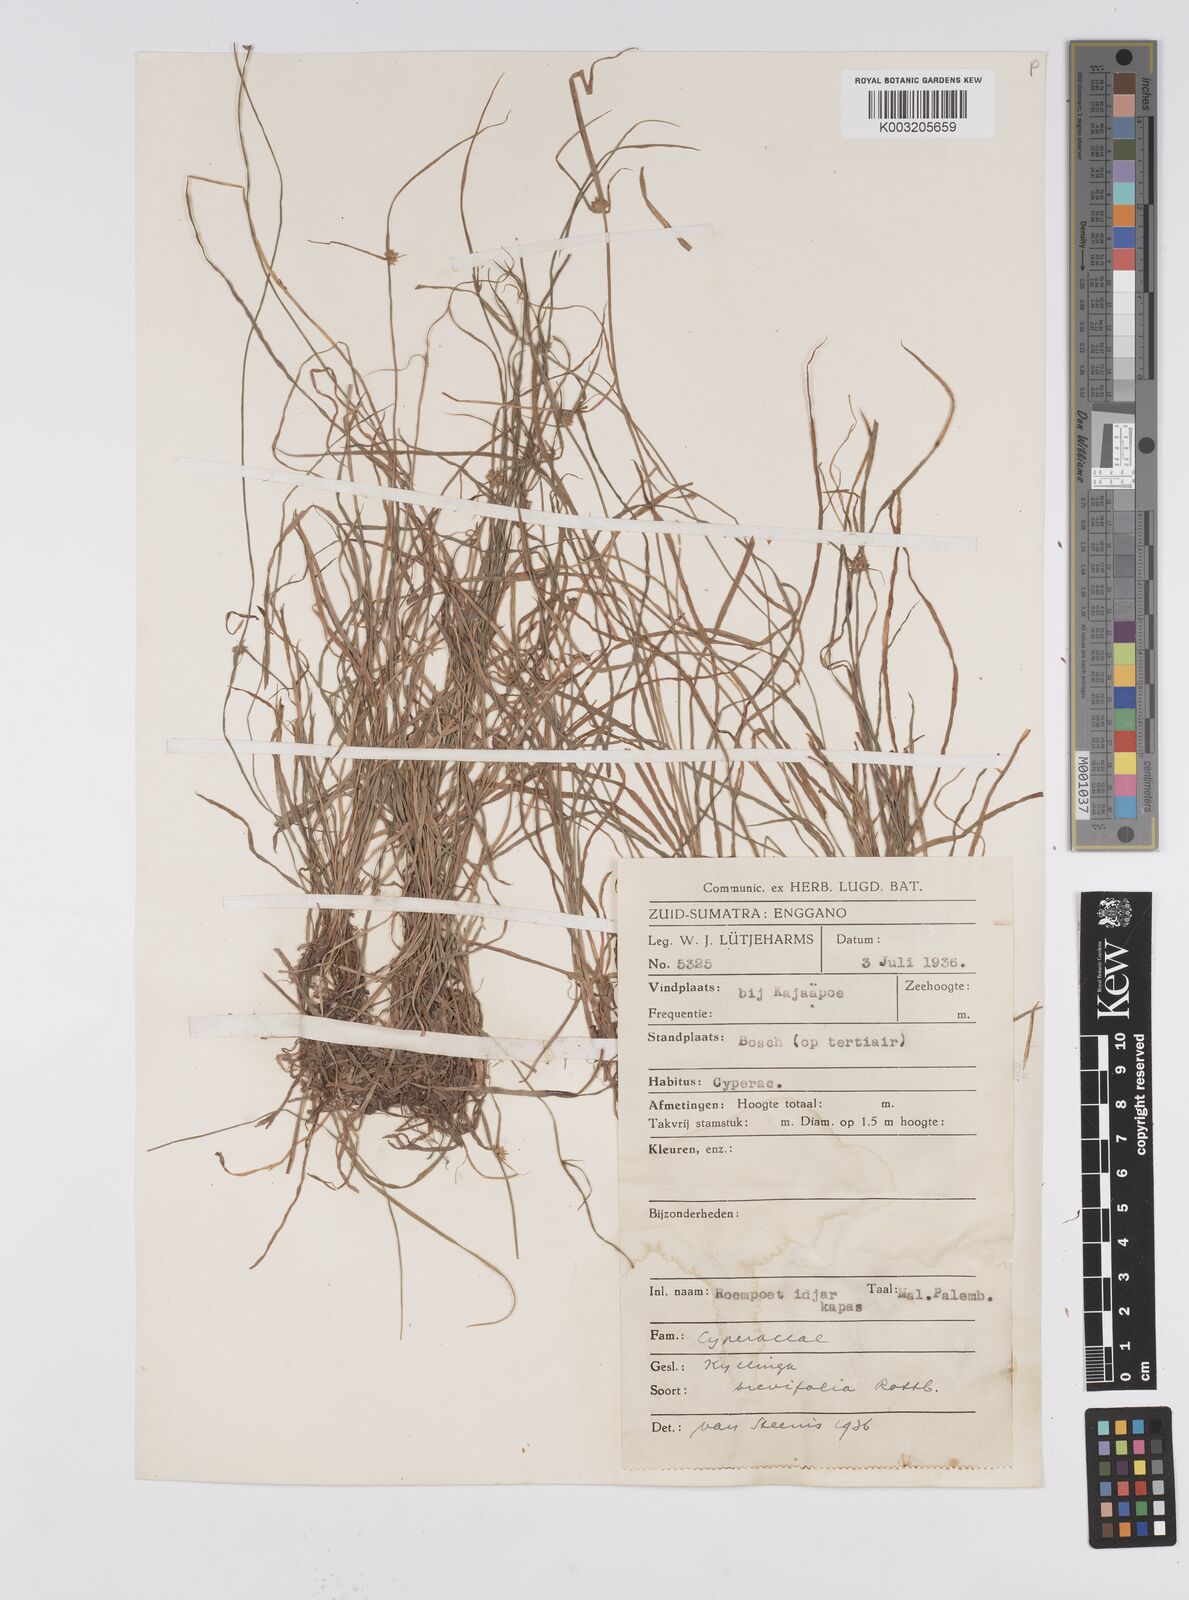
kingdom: Plantae
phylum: Tracheophyta
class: Liliopsida
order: Poales
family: Cyperaceae
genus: Cyperus
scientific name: Cyperus brevifolius
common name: Globe kyllinga
